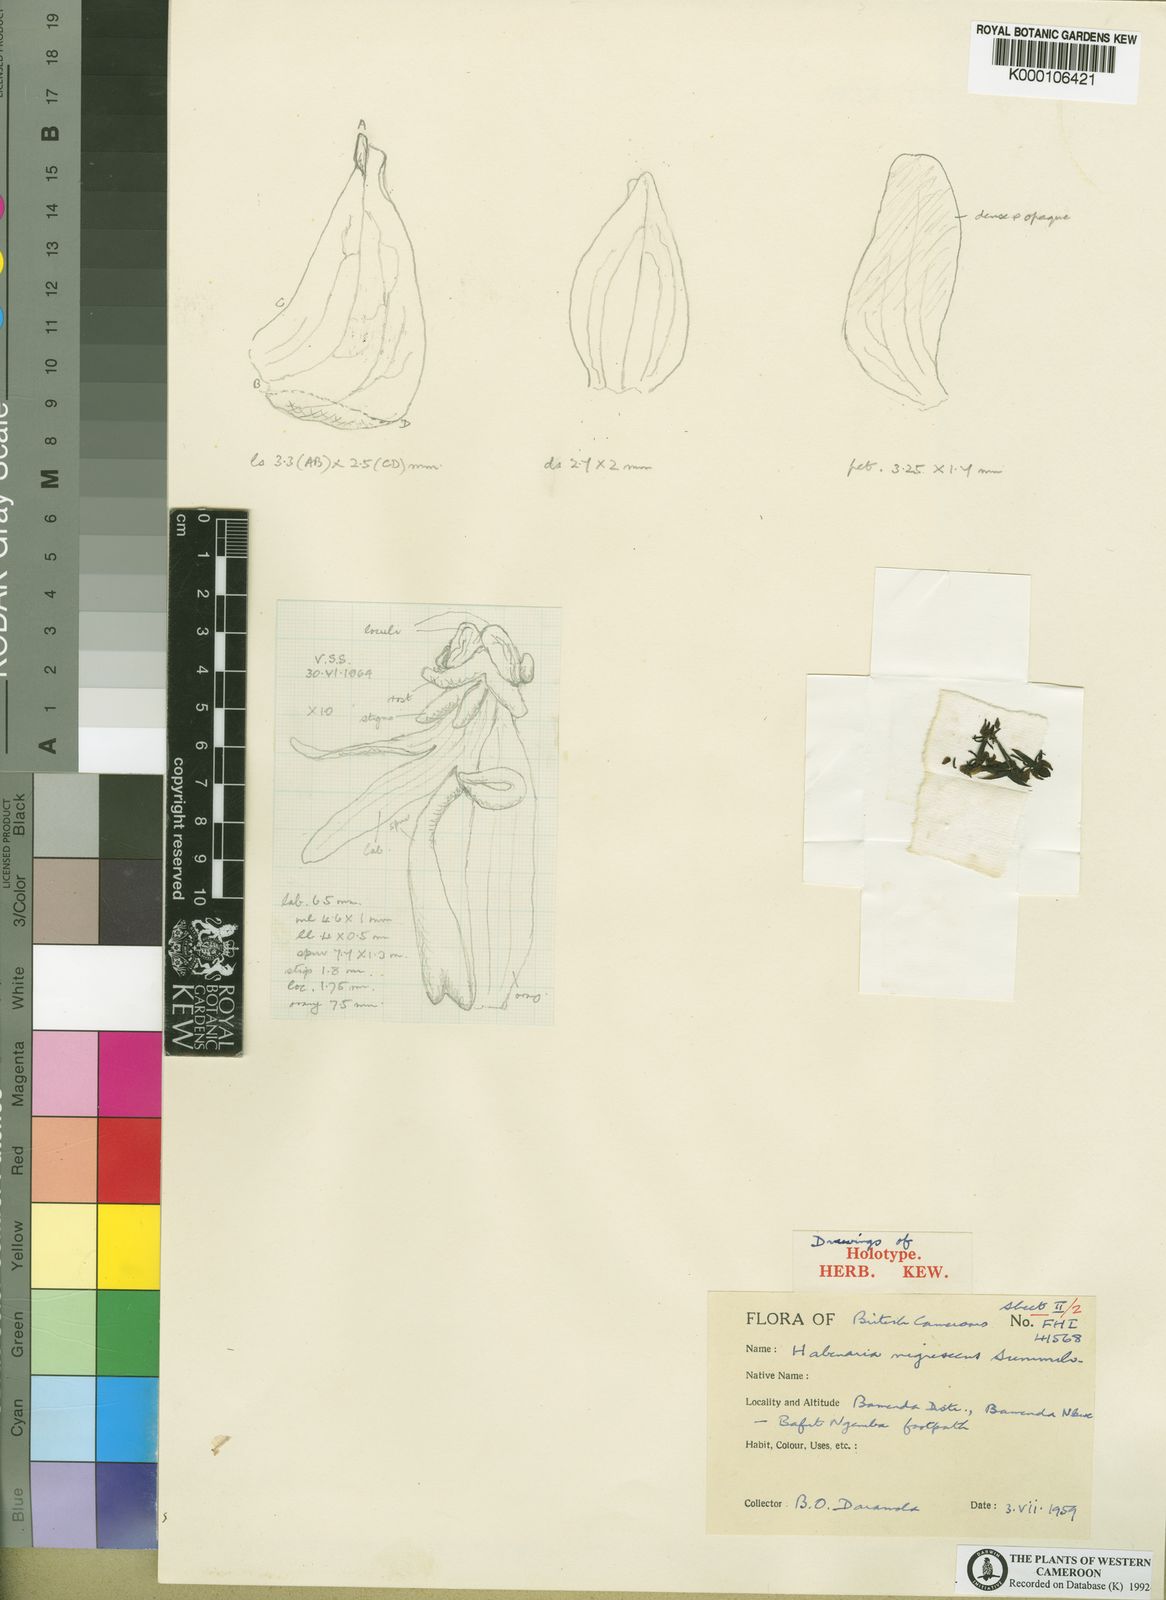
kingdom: Plantae
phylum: Tracheophyta
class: Liliopsida
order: Asparagales
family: Orchidaceae
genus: Habenaria
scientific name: Habenaria nigrescens
